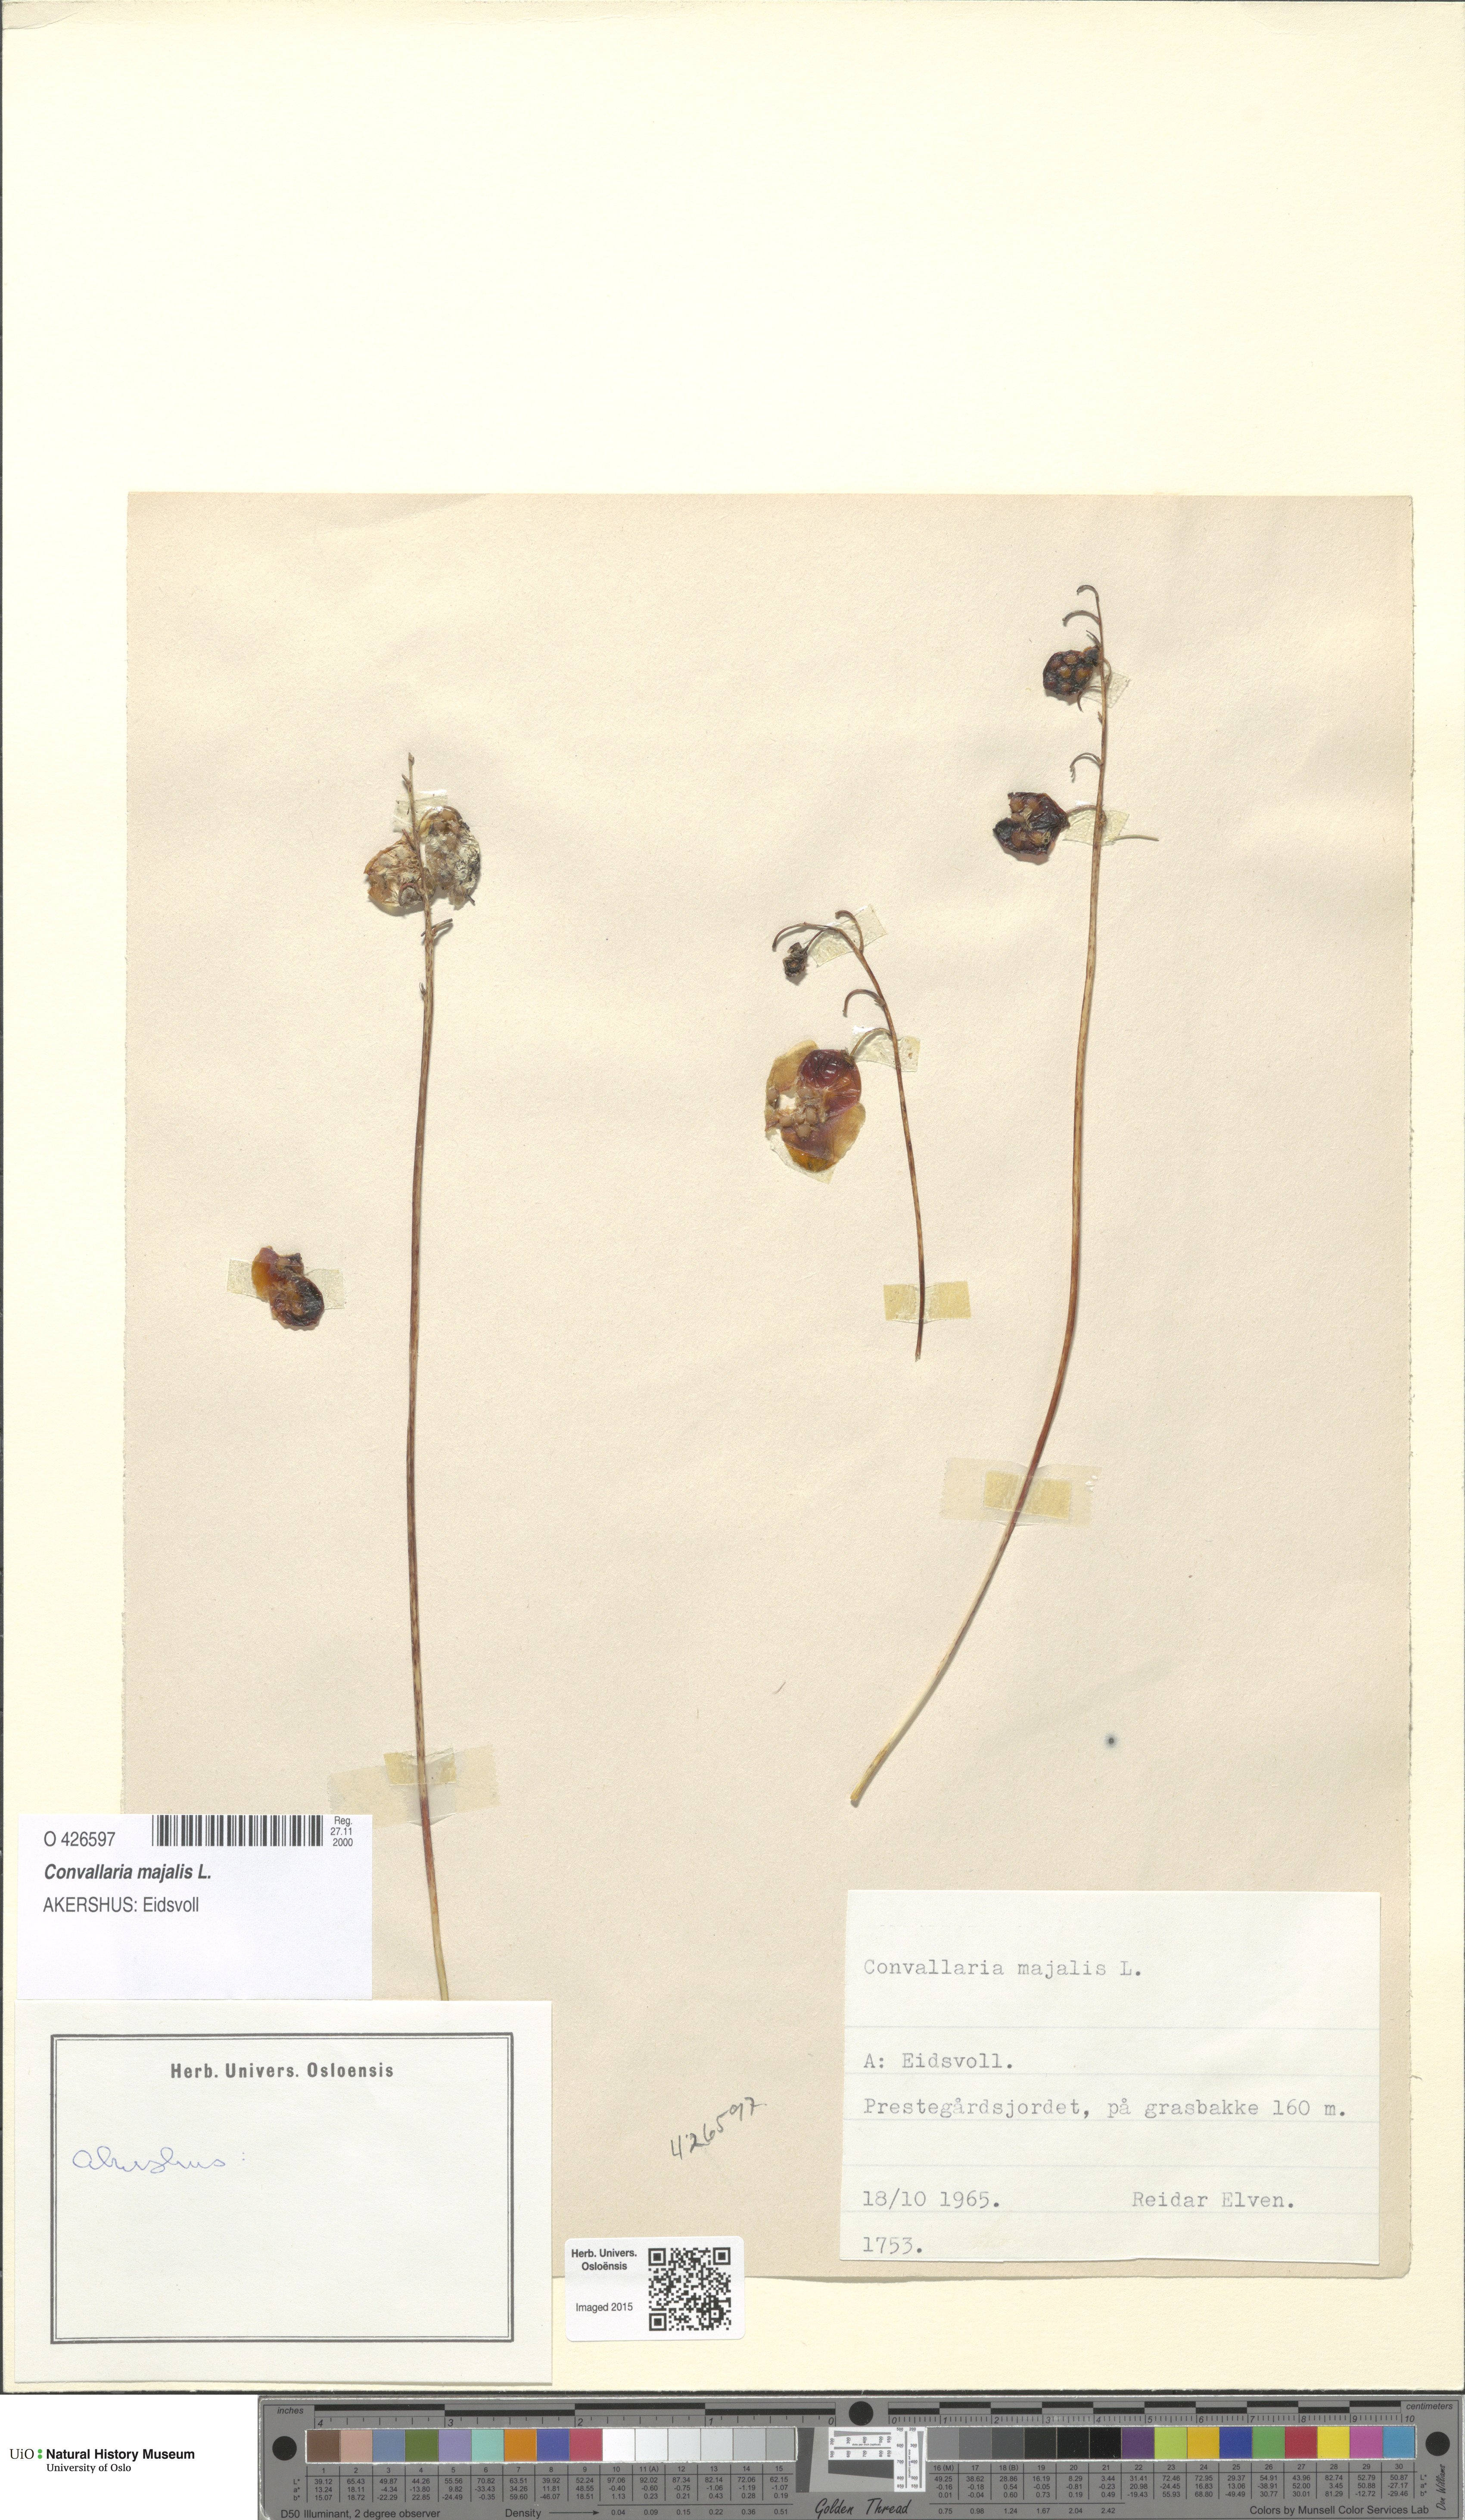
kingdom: Plantae
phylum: Tracheophyta
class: Liliopsida
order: Asparagales
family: Asparagaceae
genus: Convallaria
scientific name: Convallaria majalis
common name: Lily-of-the-valley
